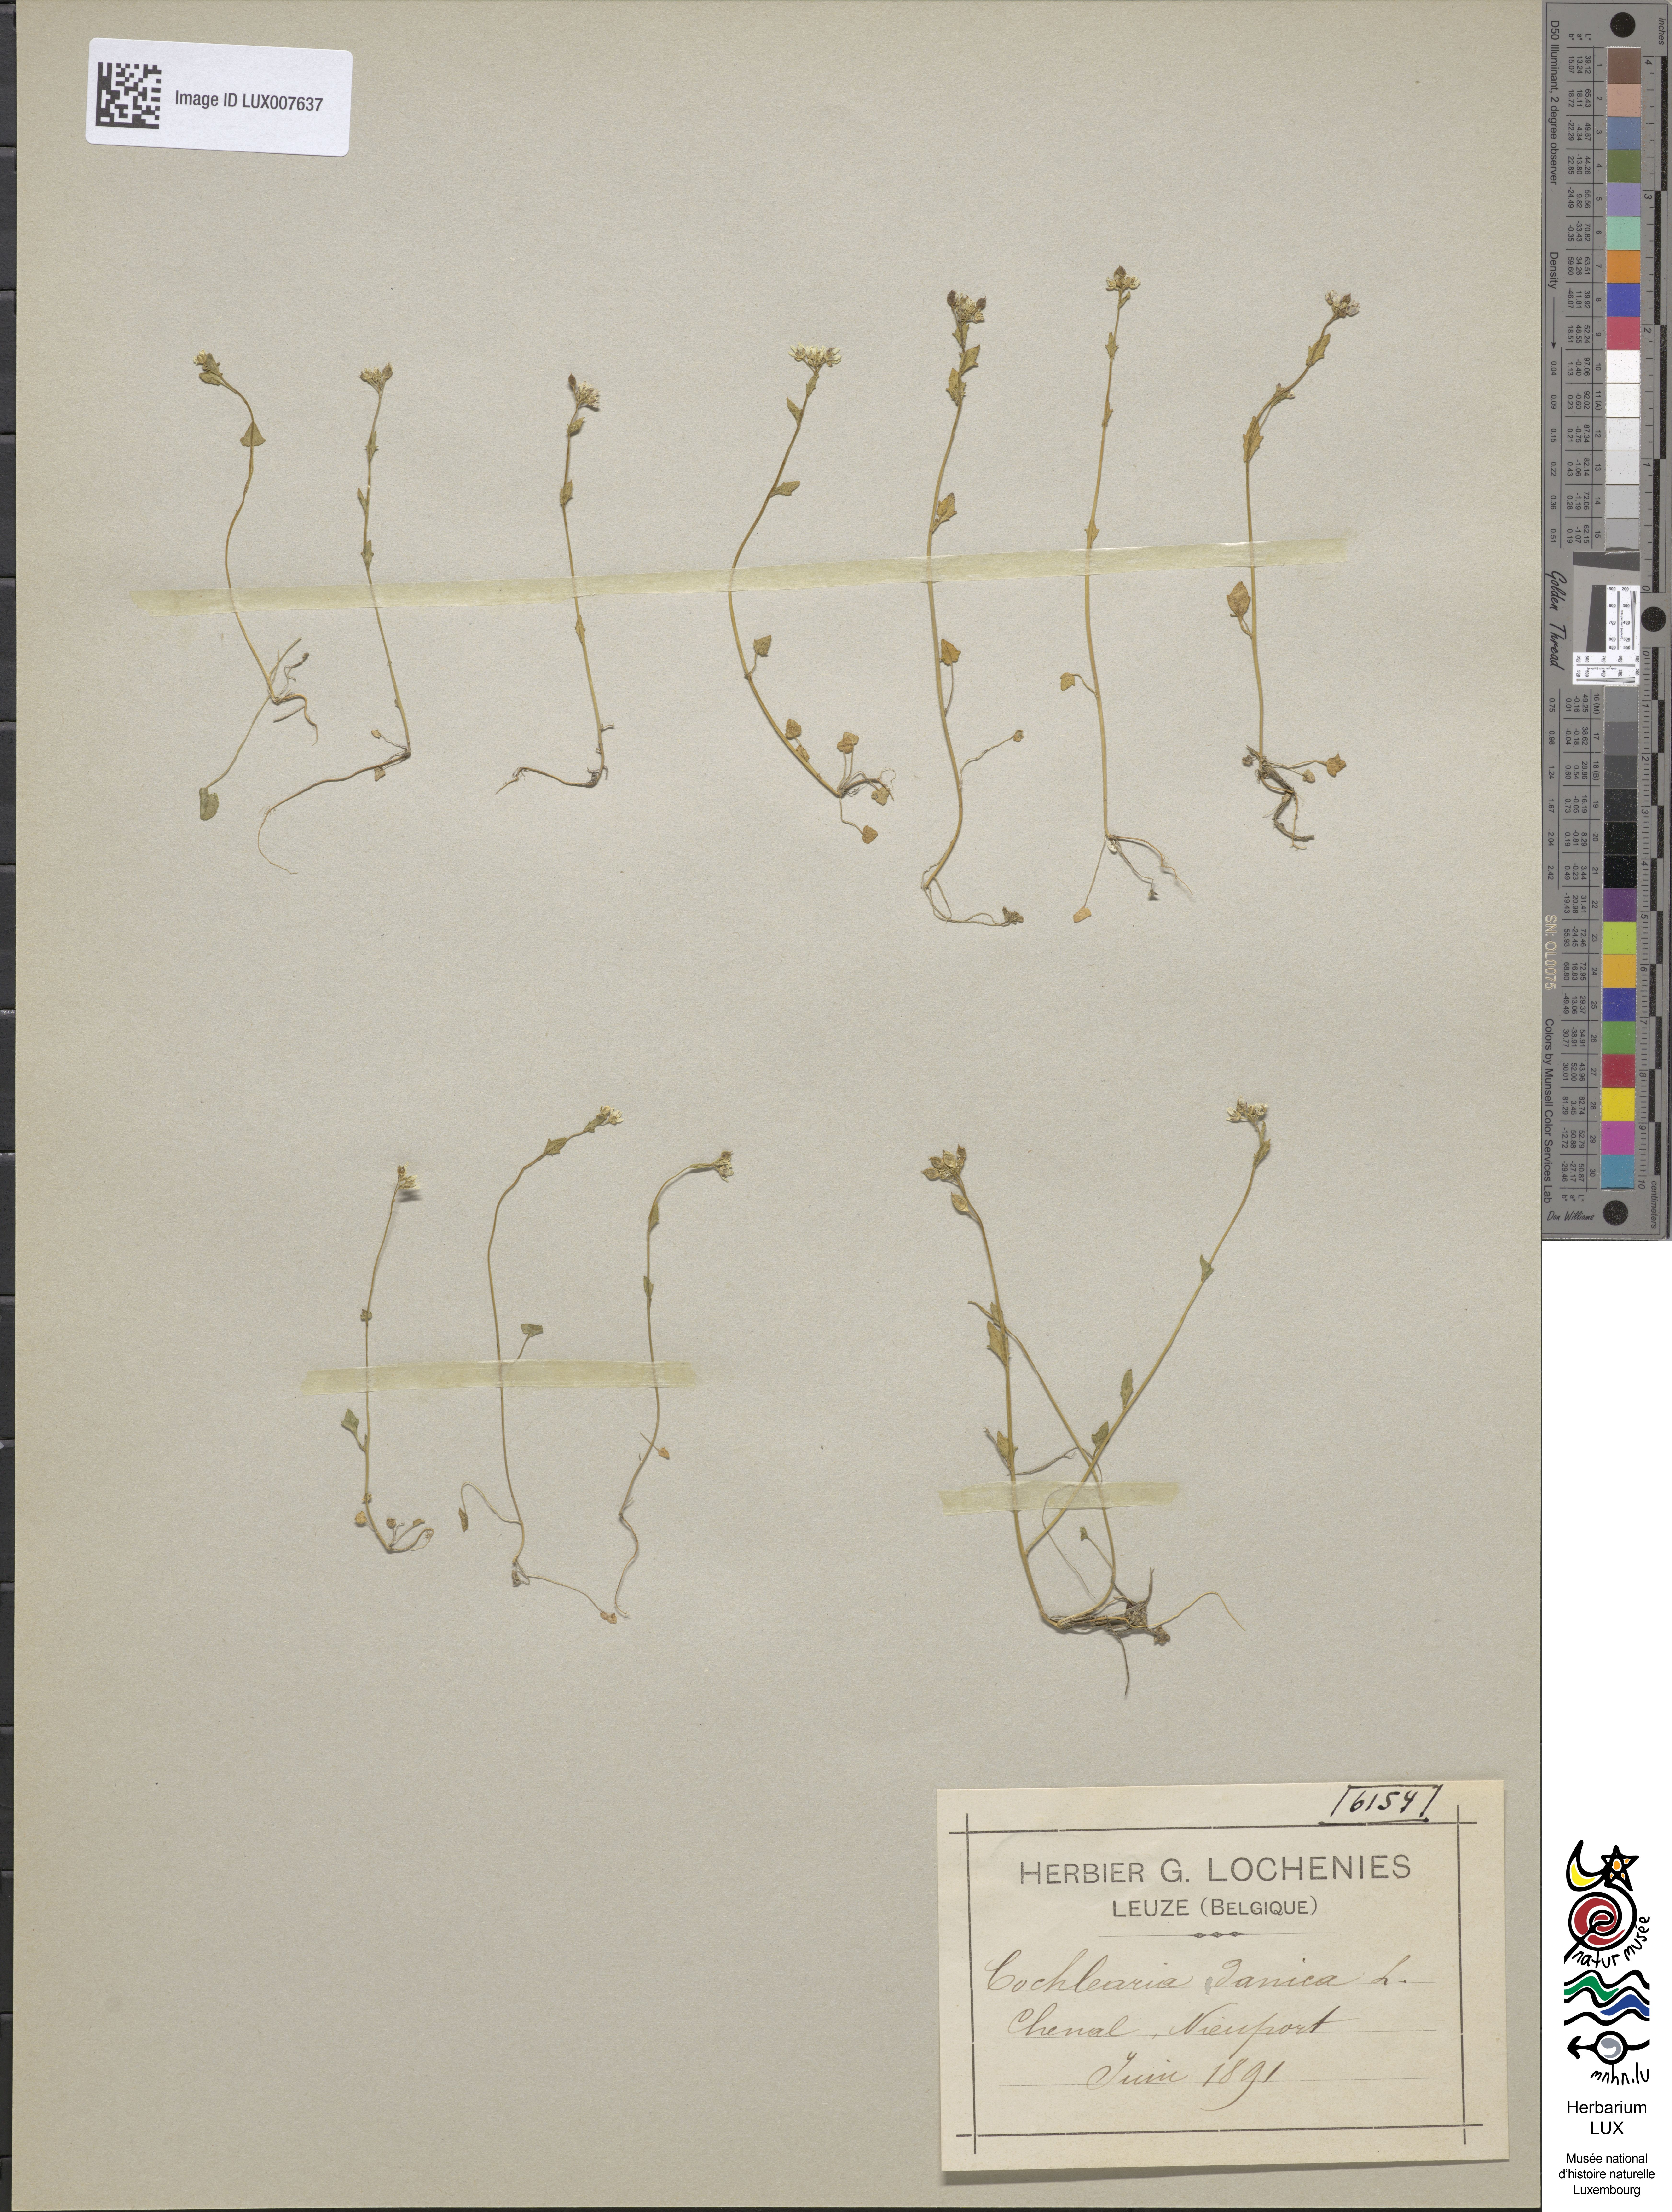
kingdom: Plantae
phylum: Tracheophyta
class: Magnoliopsida
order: Brassicales
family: Brassicaceae
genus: Cochlearia
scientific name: Cochlearia danica
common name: Early scurvygrass
